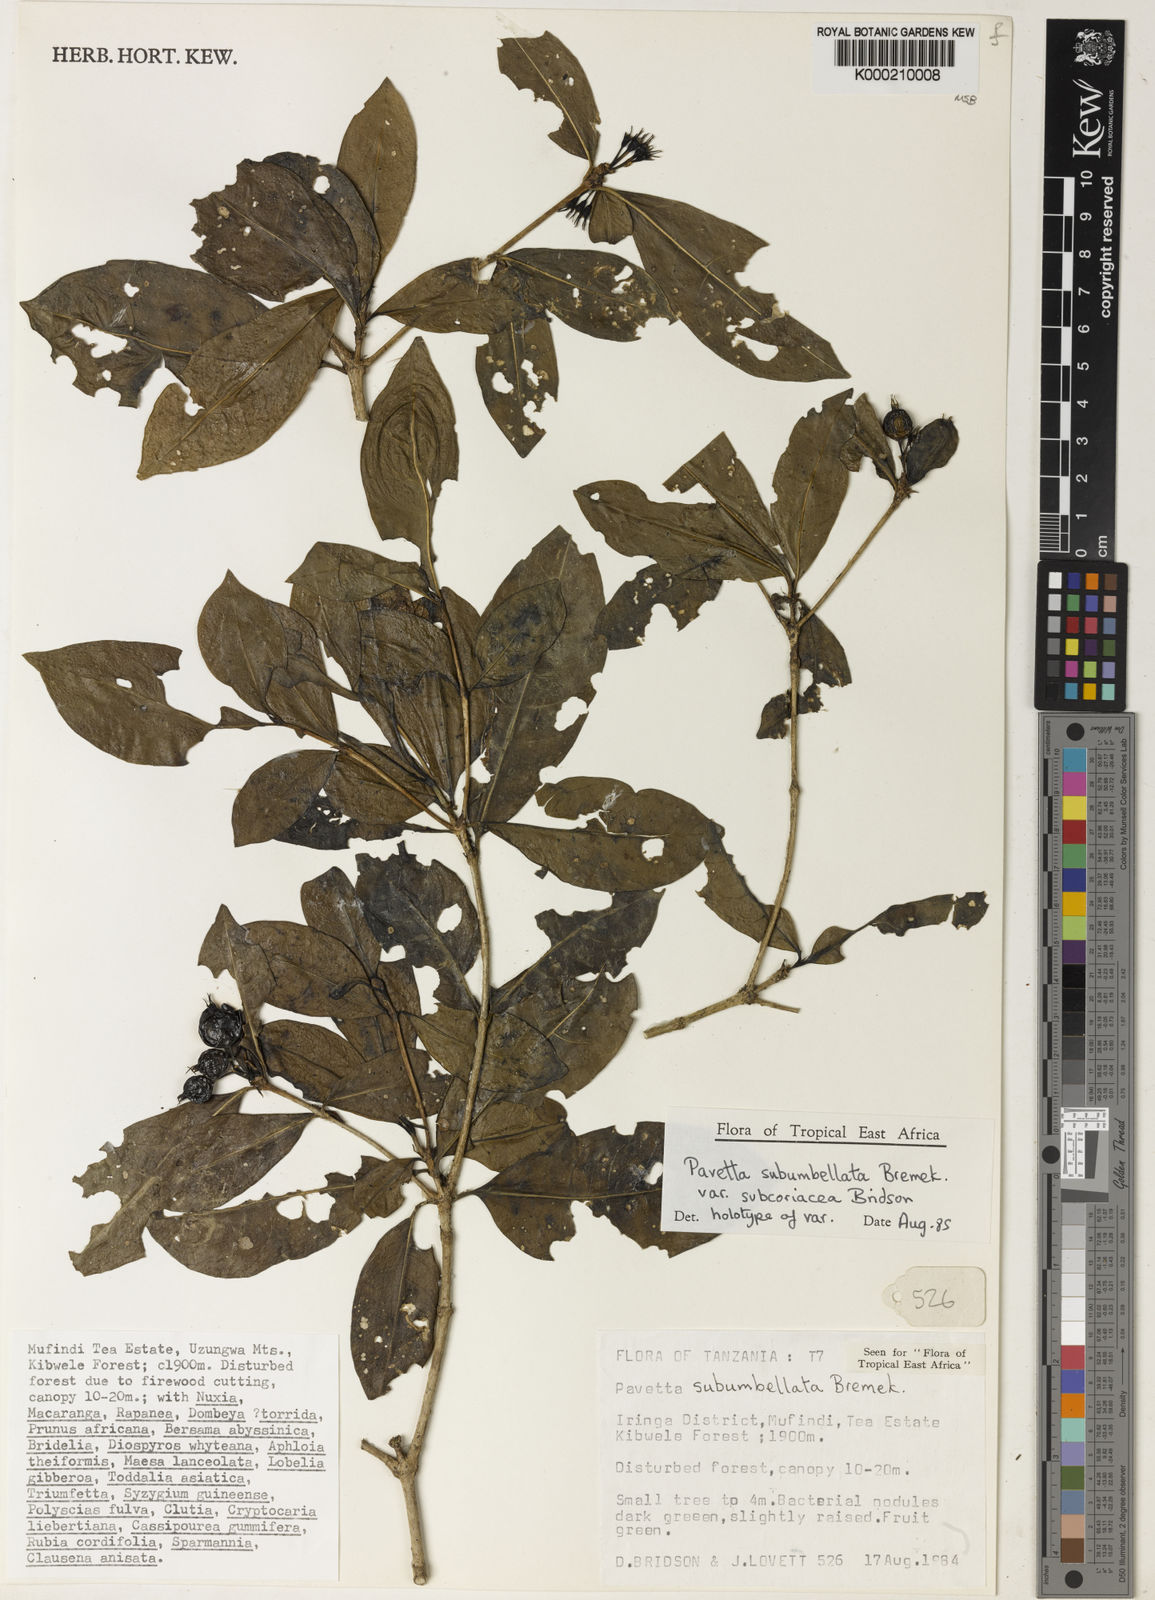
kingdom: Plantae
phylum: Tracheophyta
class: Magnoliopsida
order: Gentianales
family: Rubiaceae
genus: Pavetta
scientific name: Pavetta subumbellata
